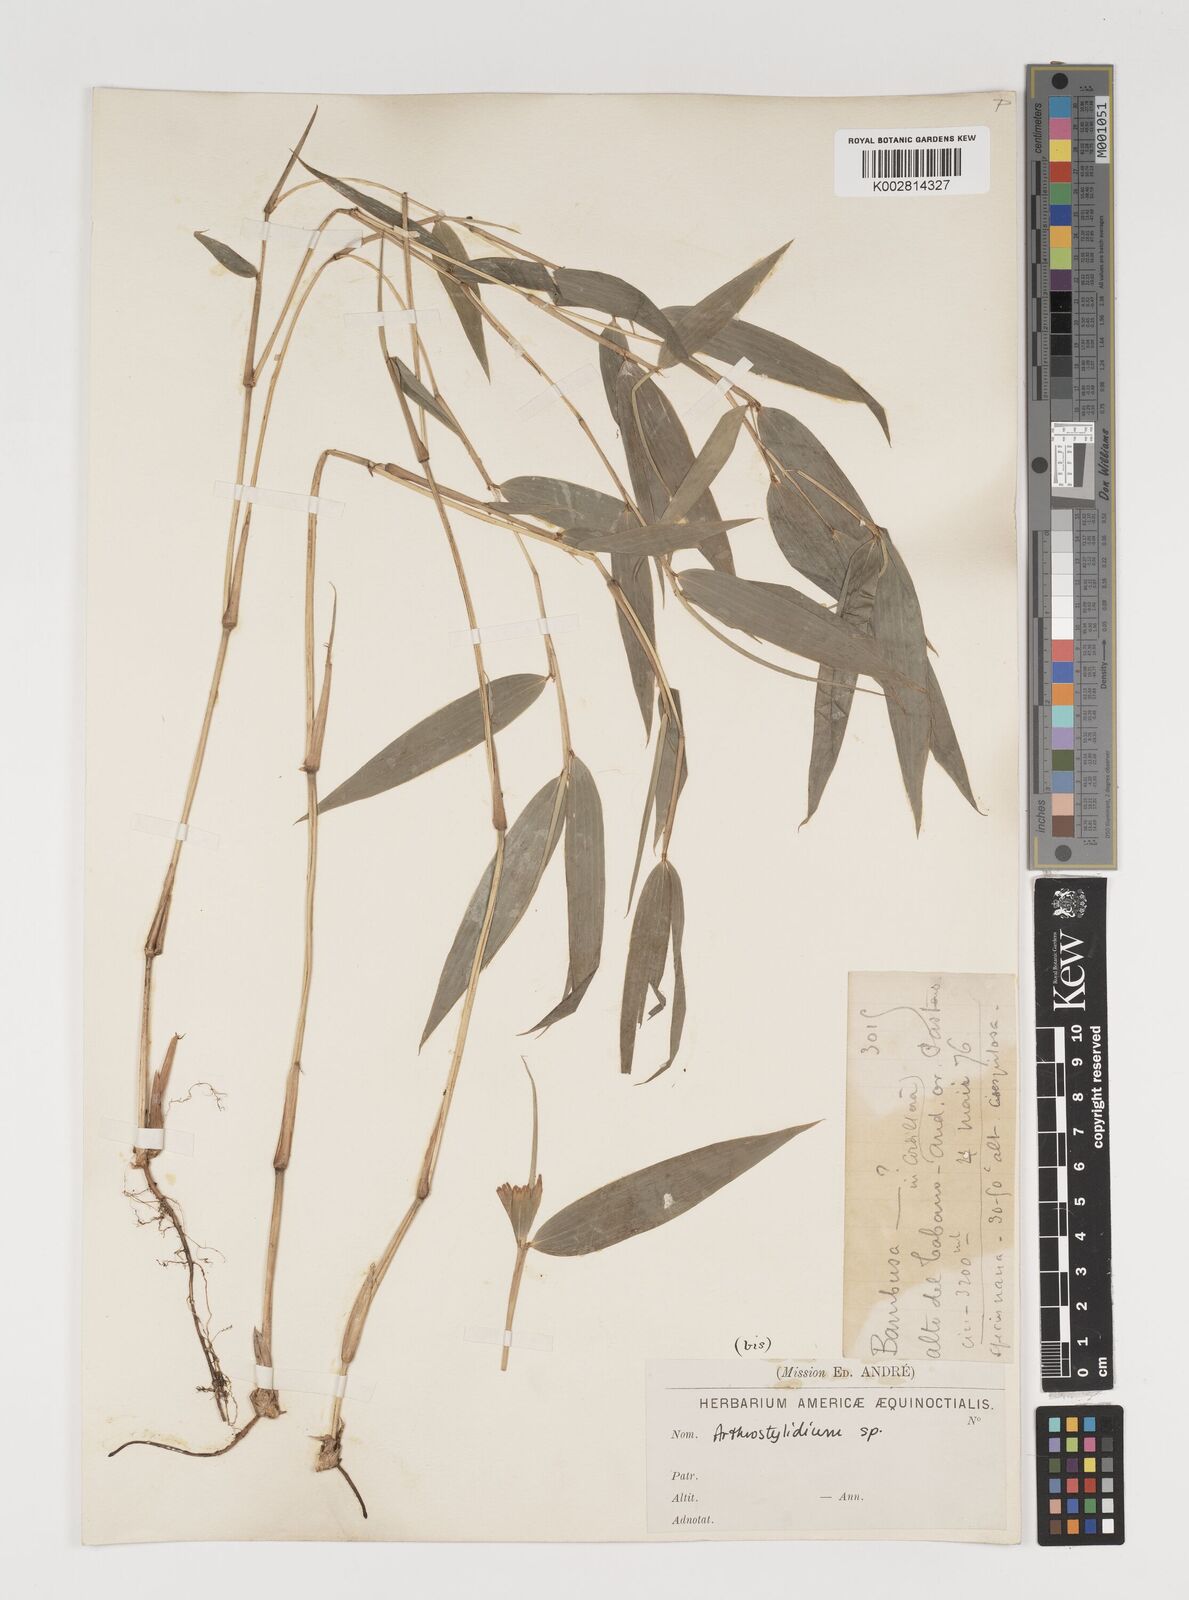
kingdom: Plantae
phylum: Tracheophyta
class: Liliopsida
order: Poales
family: Poaceae
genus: Arthrostylidium
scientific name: Arthrostylidium
